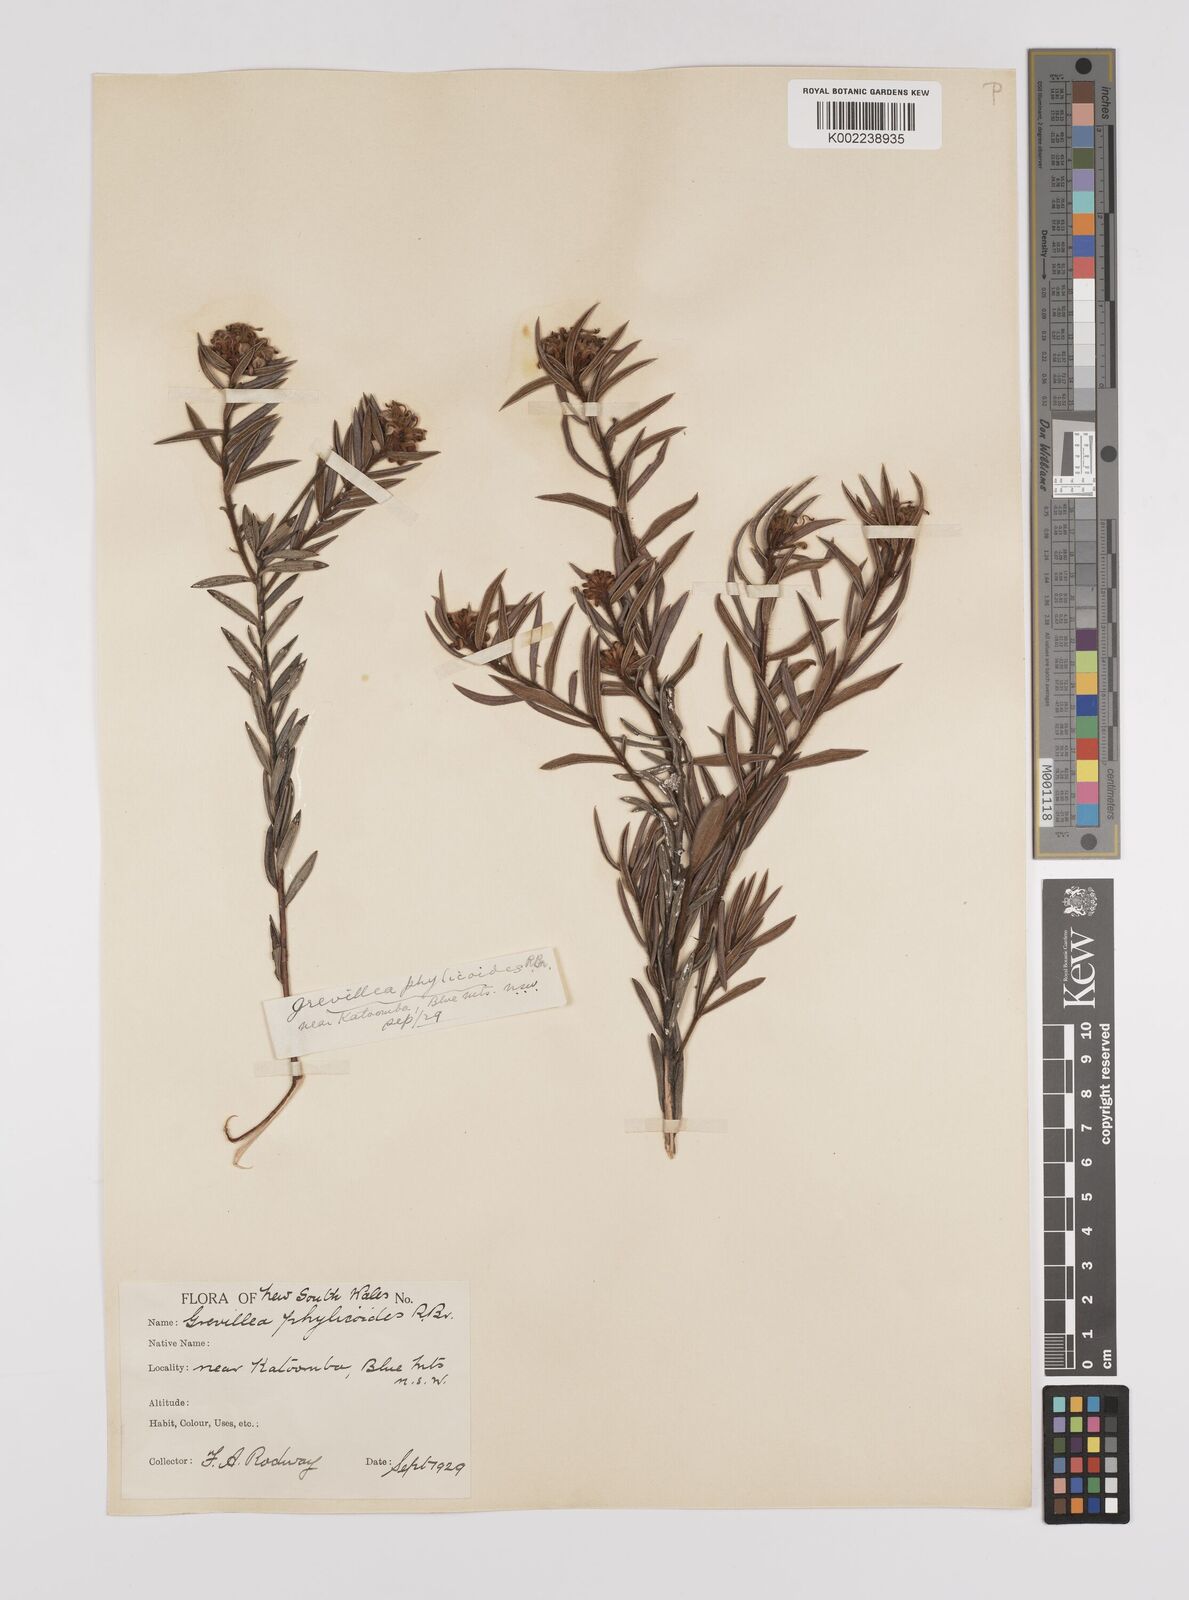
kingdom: Plantae
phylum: Tracheophyta
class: Magnoliopsida
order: Proteales
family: Proteaceae
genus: Grevillea
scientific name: Grevillea phylicoides
